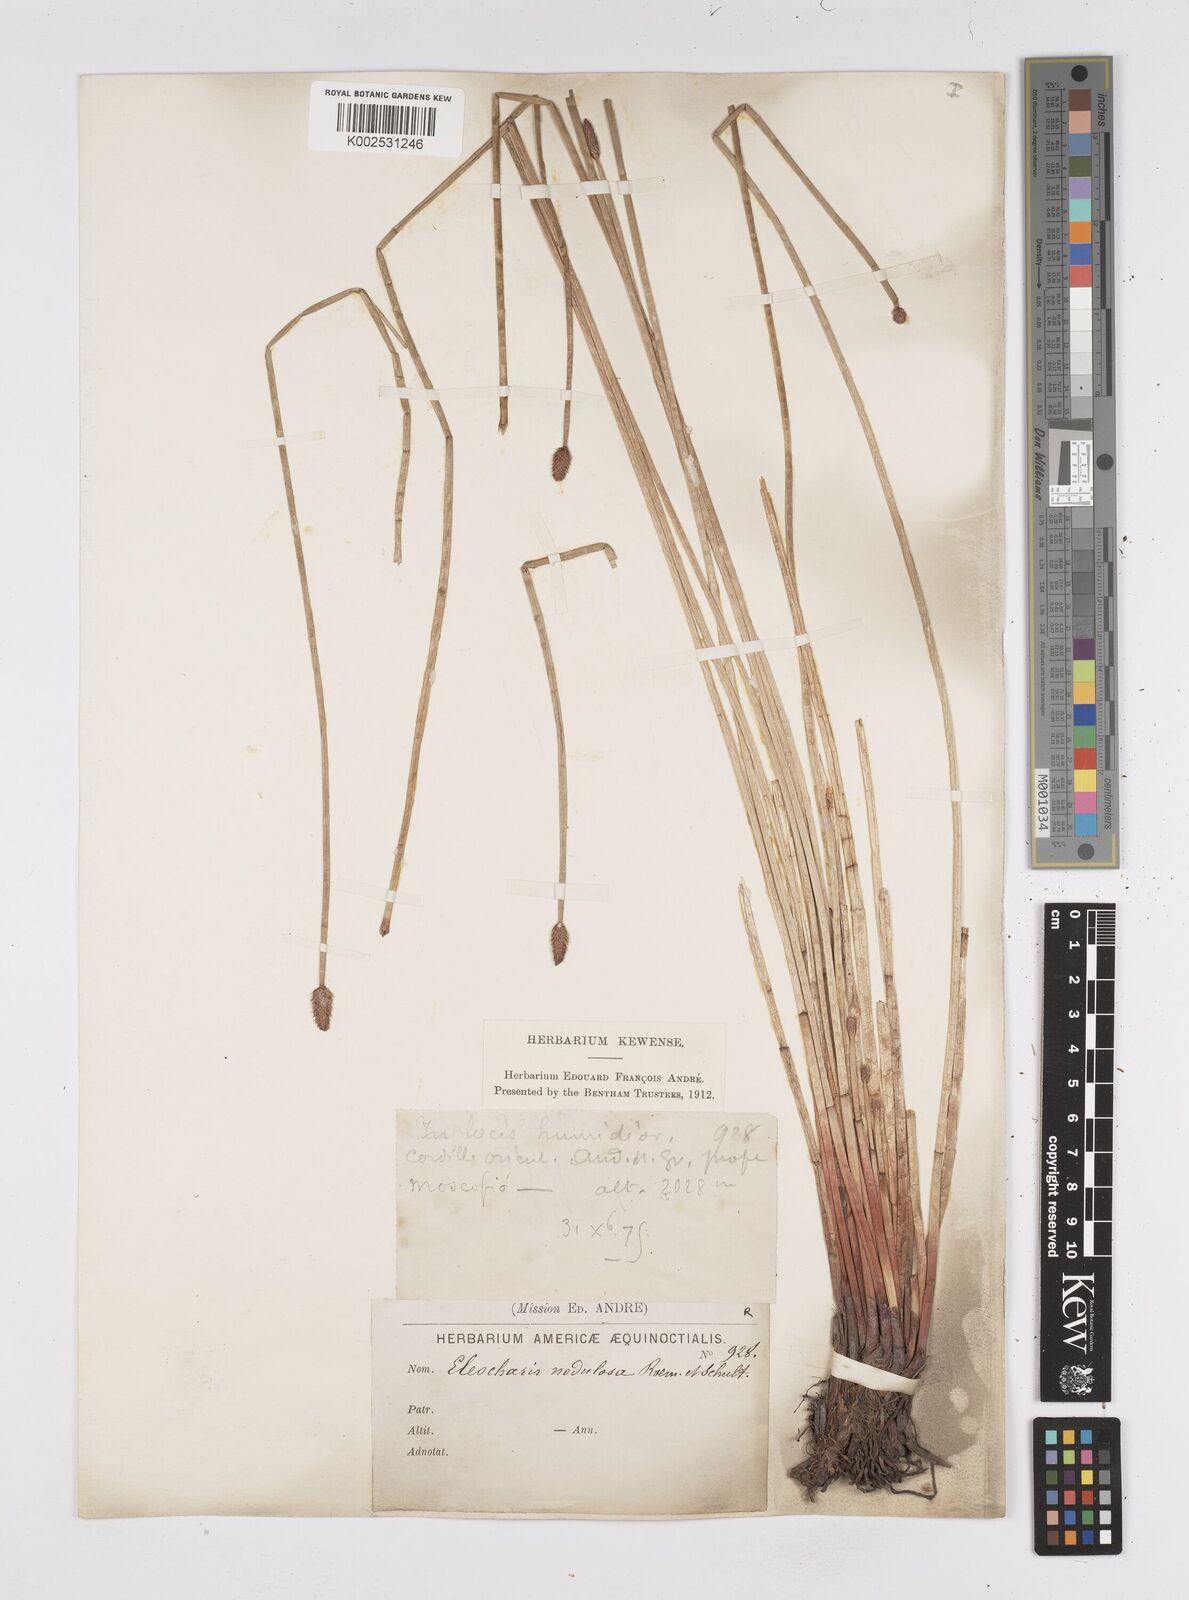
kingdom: Plantae
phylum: Tracheophyta
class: Liliopsida
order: Poales
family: Cyperaceae
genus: Eleocharis
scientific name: Eleocharis montana
